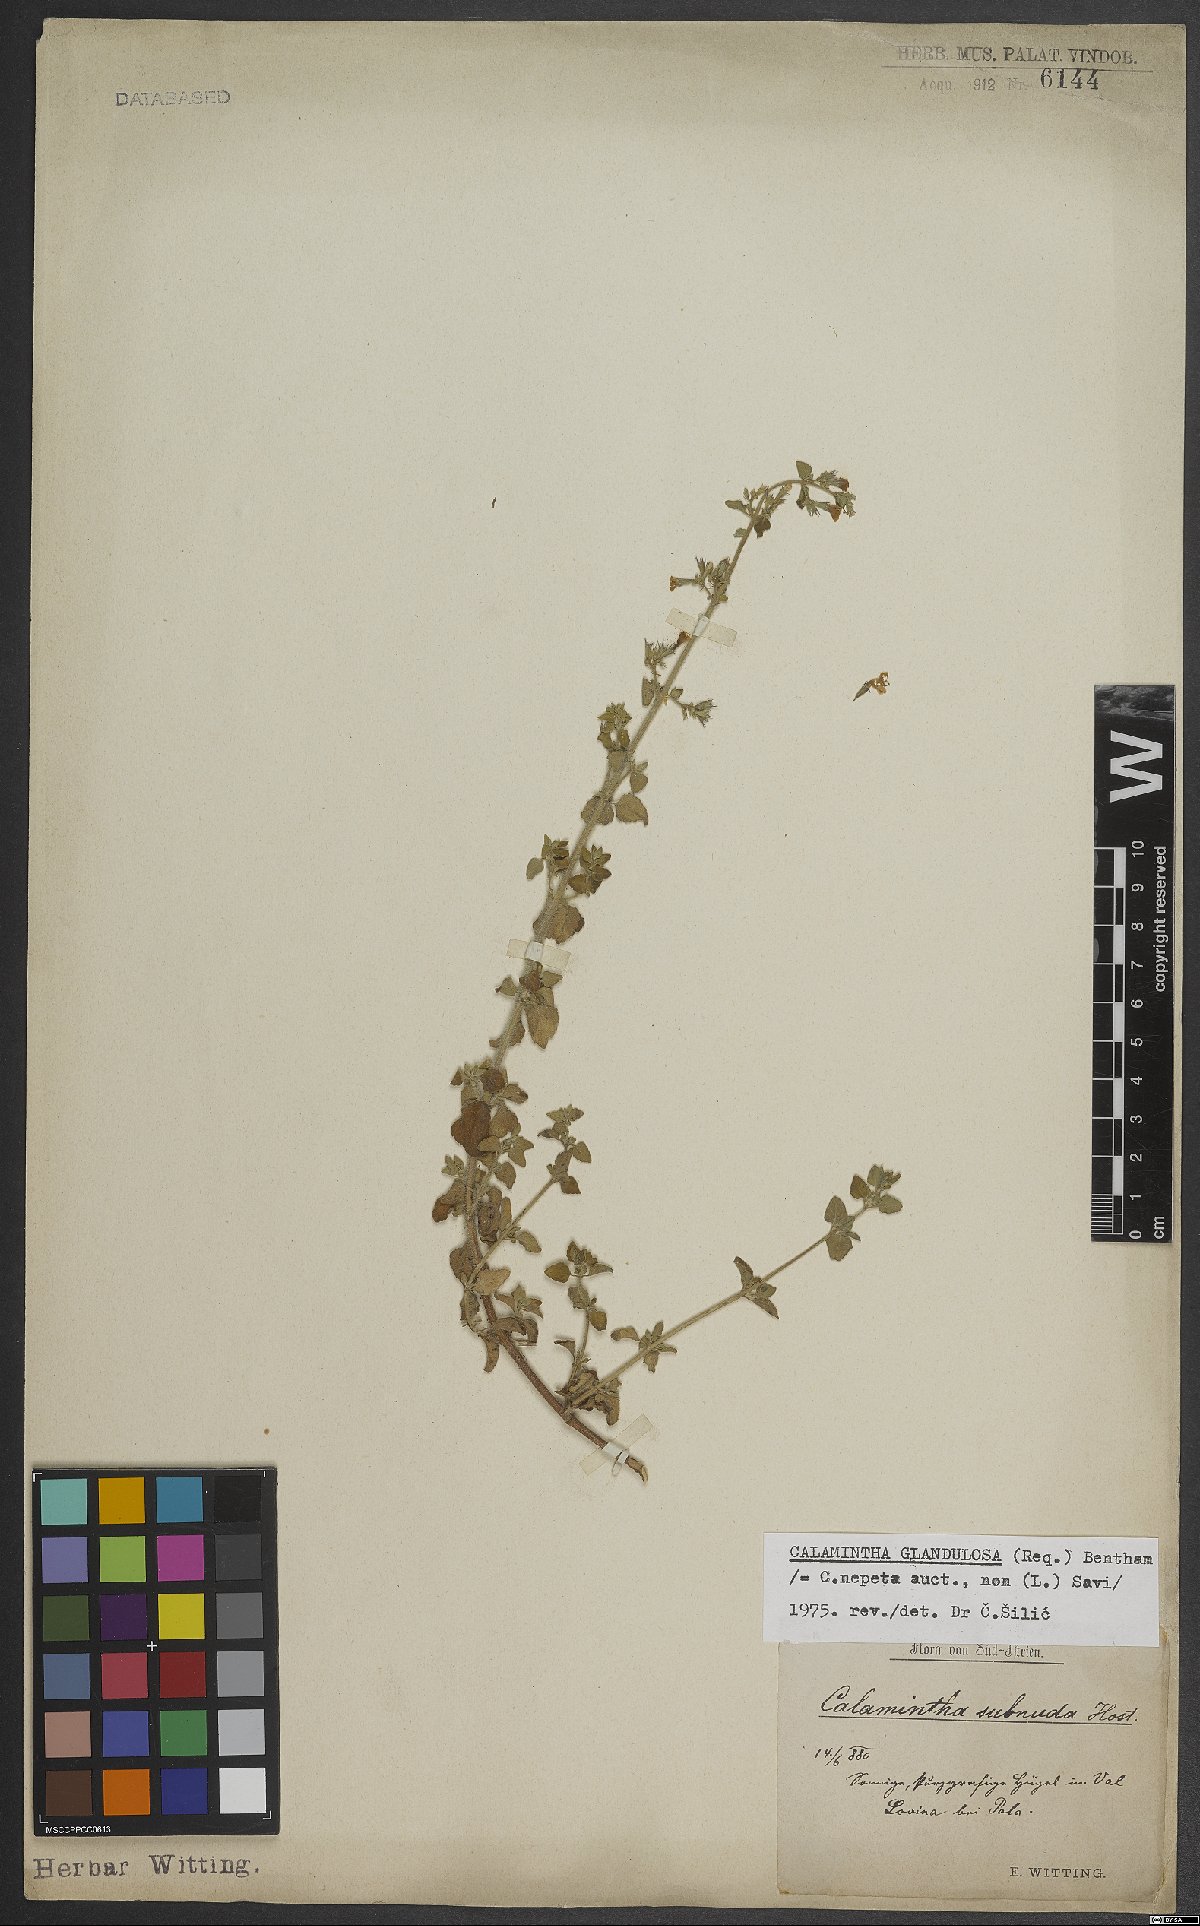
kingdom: Plantae
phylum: Tracheophyta
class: Magnoliopsida
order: Lamiales
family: Lamiaceae
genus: Clinopodium
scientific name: Clinopodium nepeta
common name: Lesser calamint
